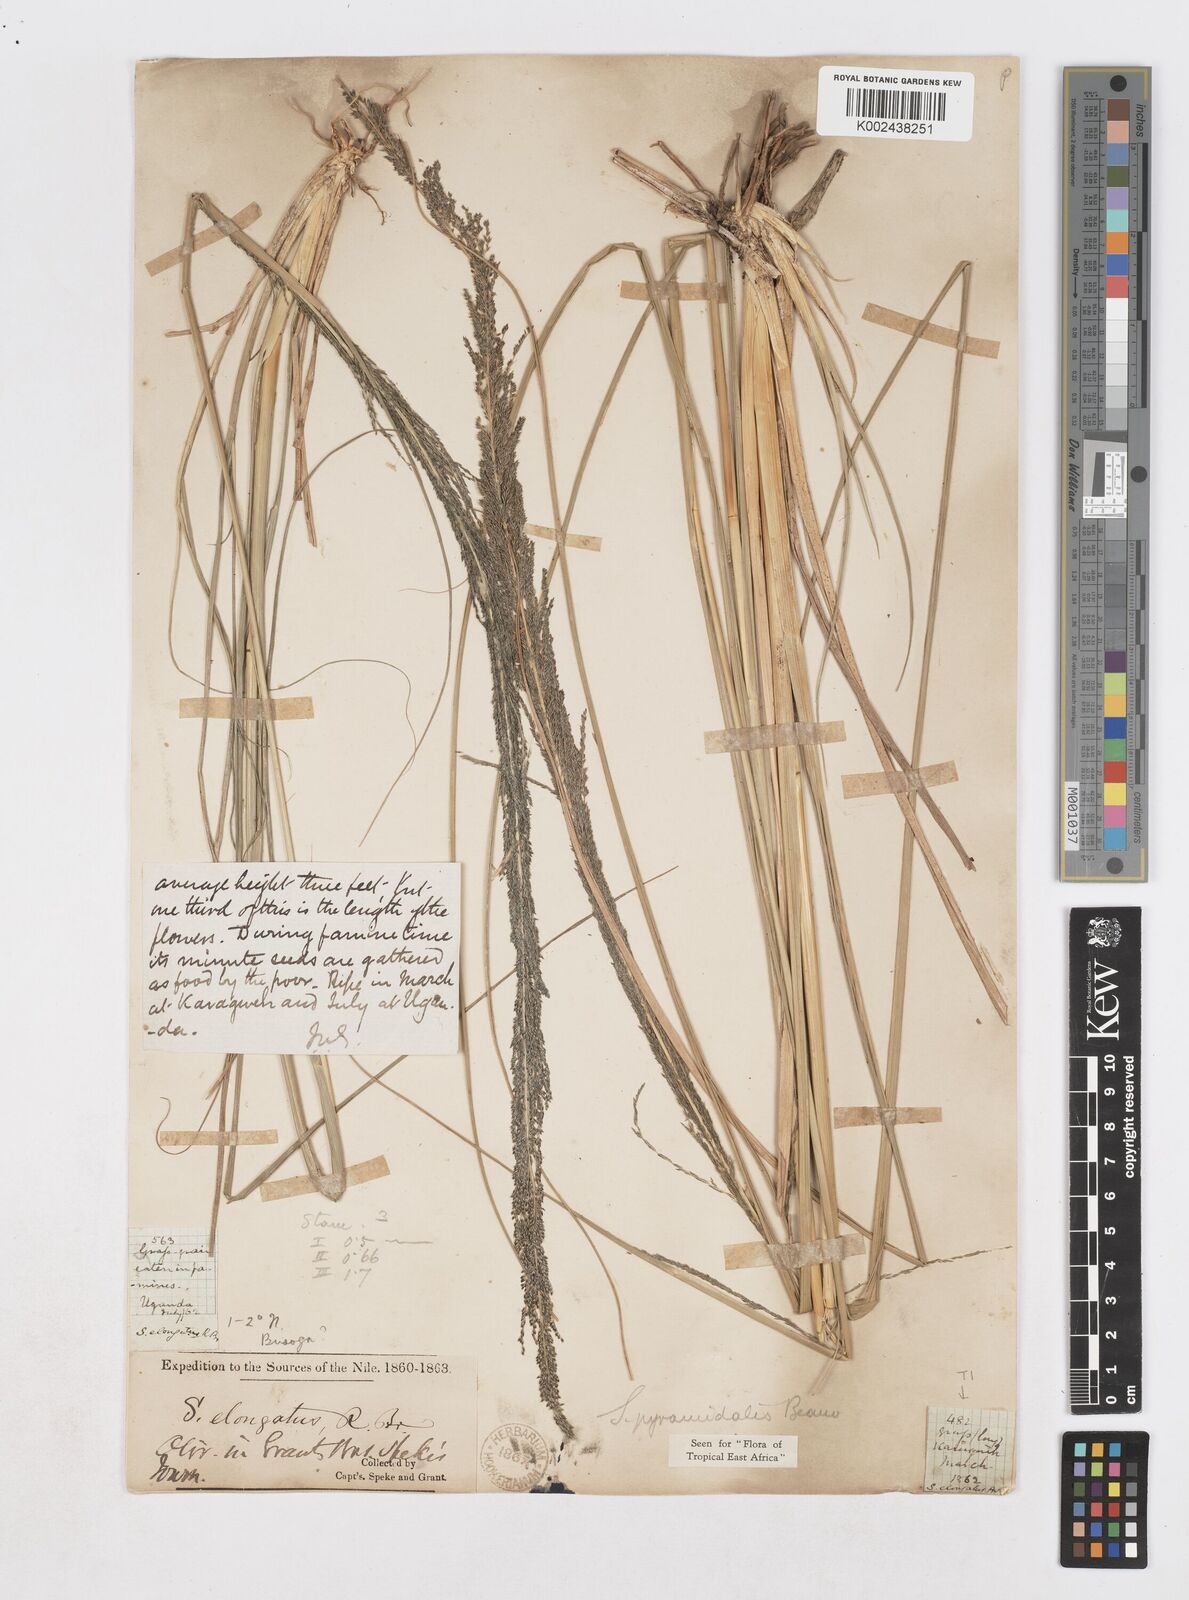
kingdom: Plantae
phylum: Tracheophyta
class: Liliopsida
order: Poales
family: Poaceae
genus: Sporobolus
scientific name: Sporobolus pyramidalis
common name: West indian dropseed
